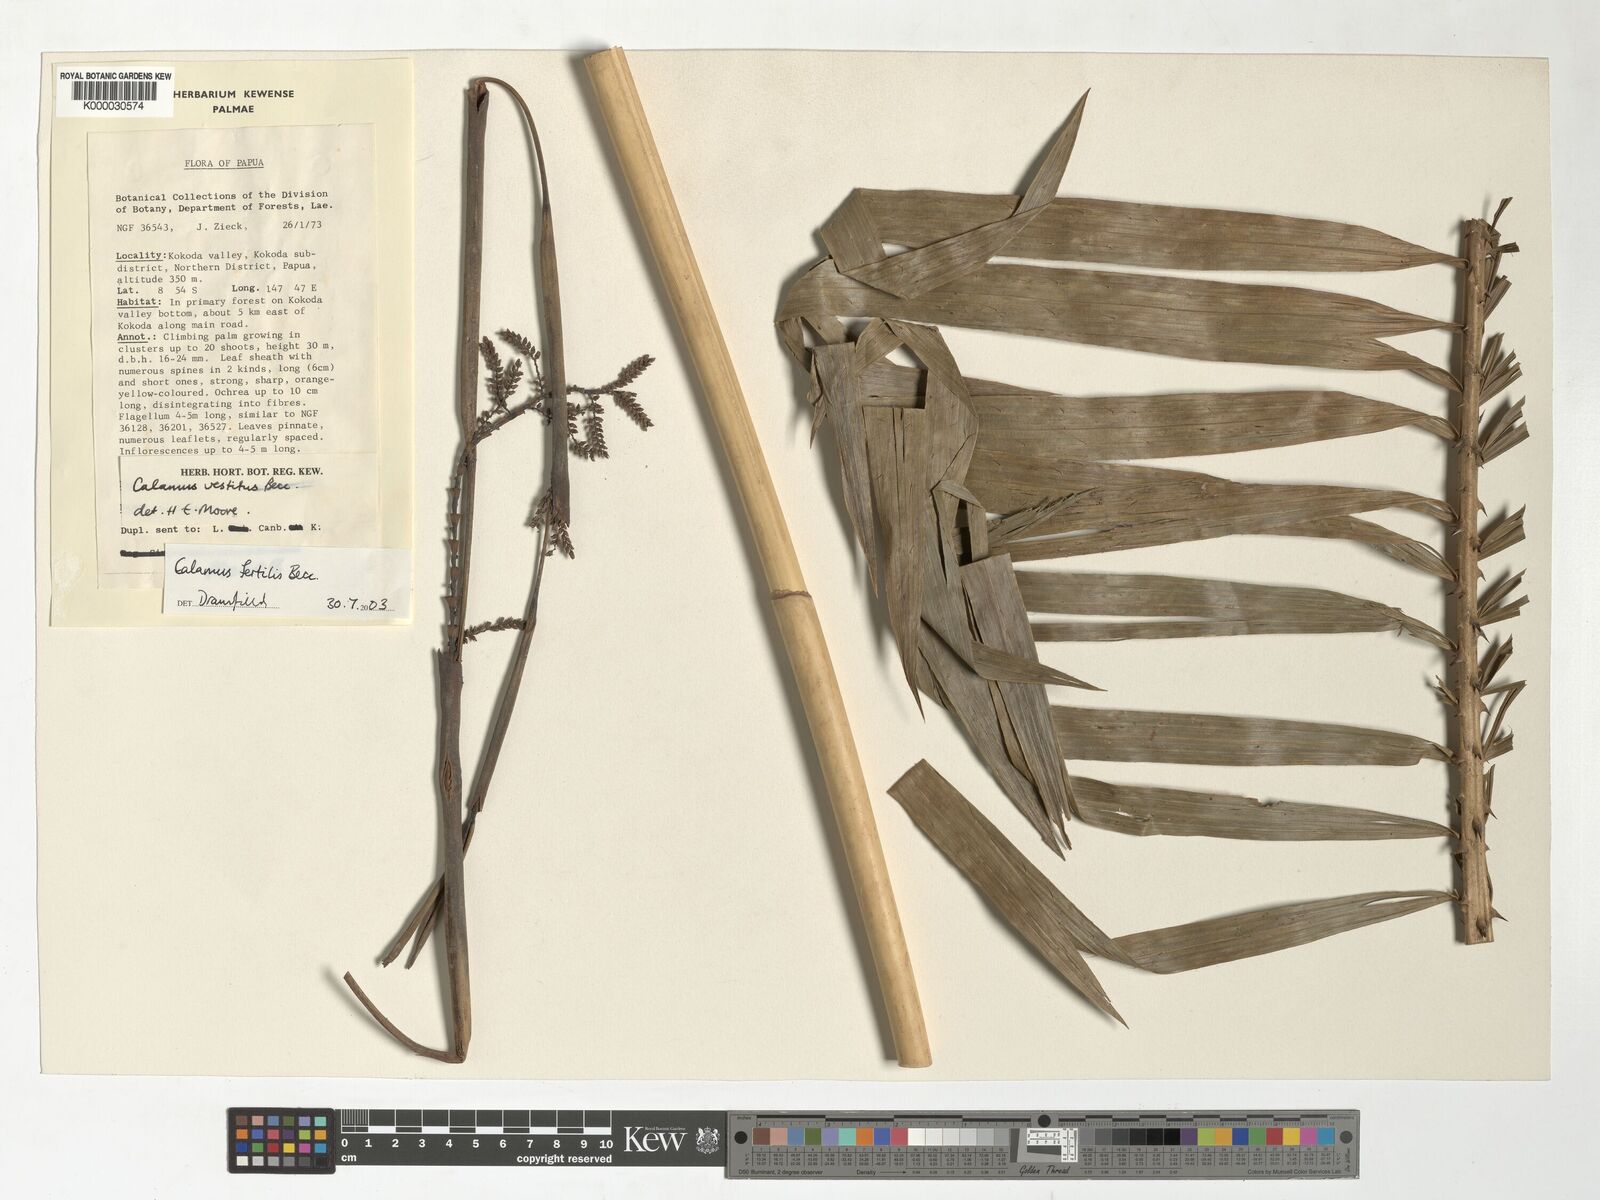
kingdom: Plantae
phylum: Tracheophyta
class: Liliopsida
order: Arecales
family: Arecaceae
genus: Calamus
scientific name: Calamus fertilis
